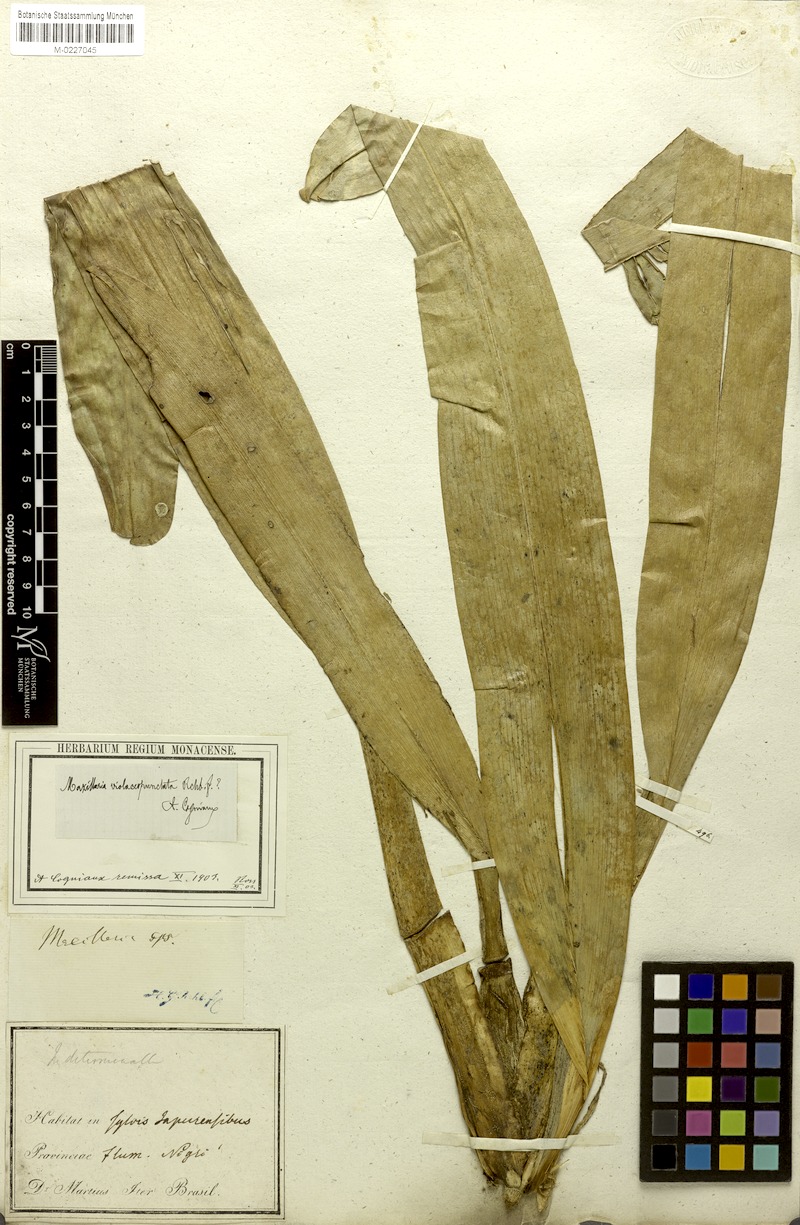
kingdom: Plantae
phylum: Tracheophyta
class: Liliopsida
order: Asparagales
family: Orchidaceae
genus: Maxillaria
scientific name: Maxillaria violaceopunctata
